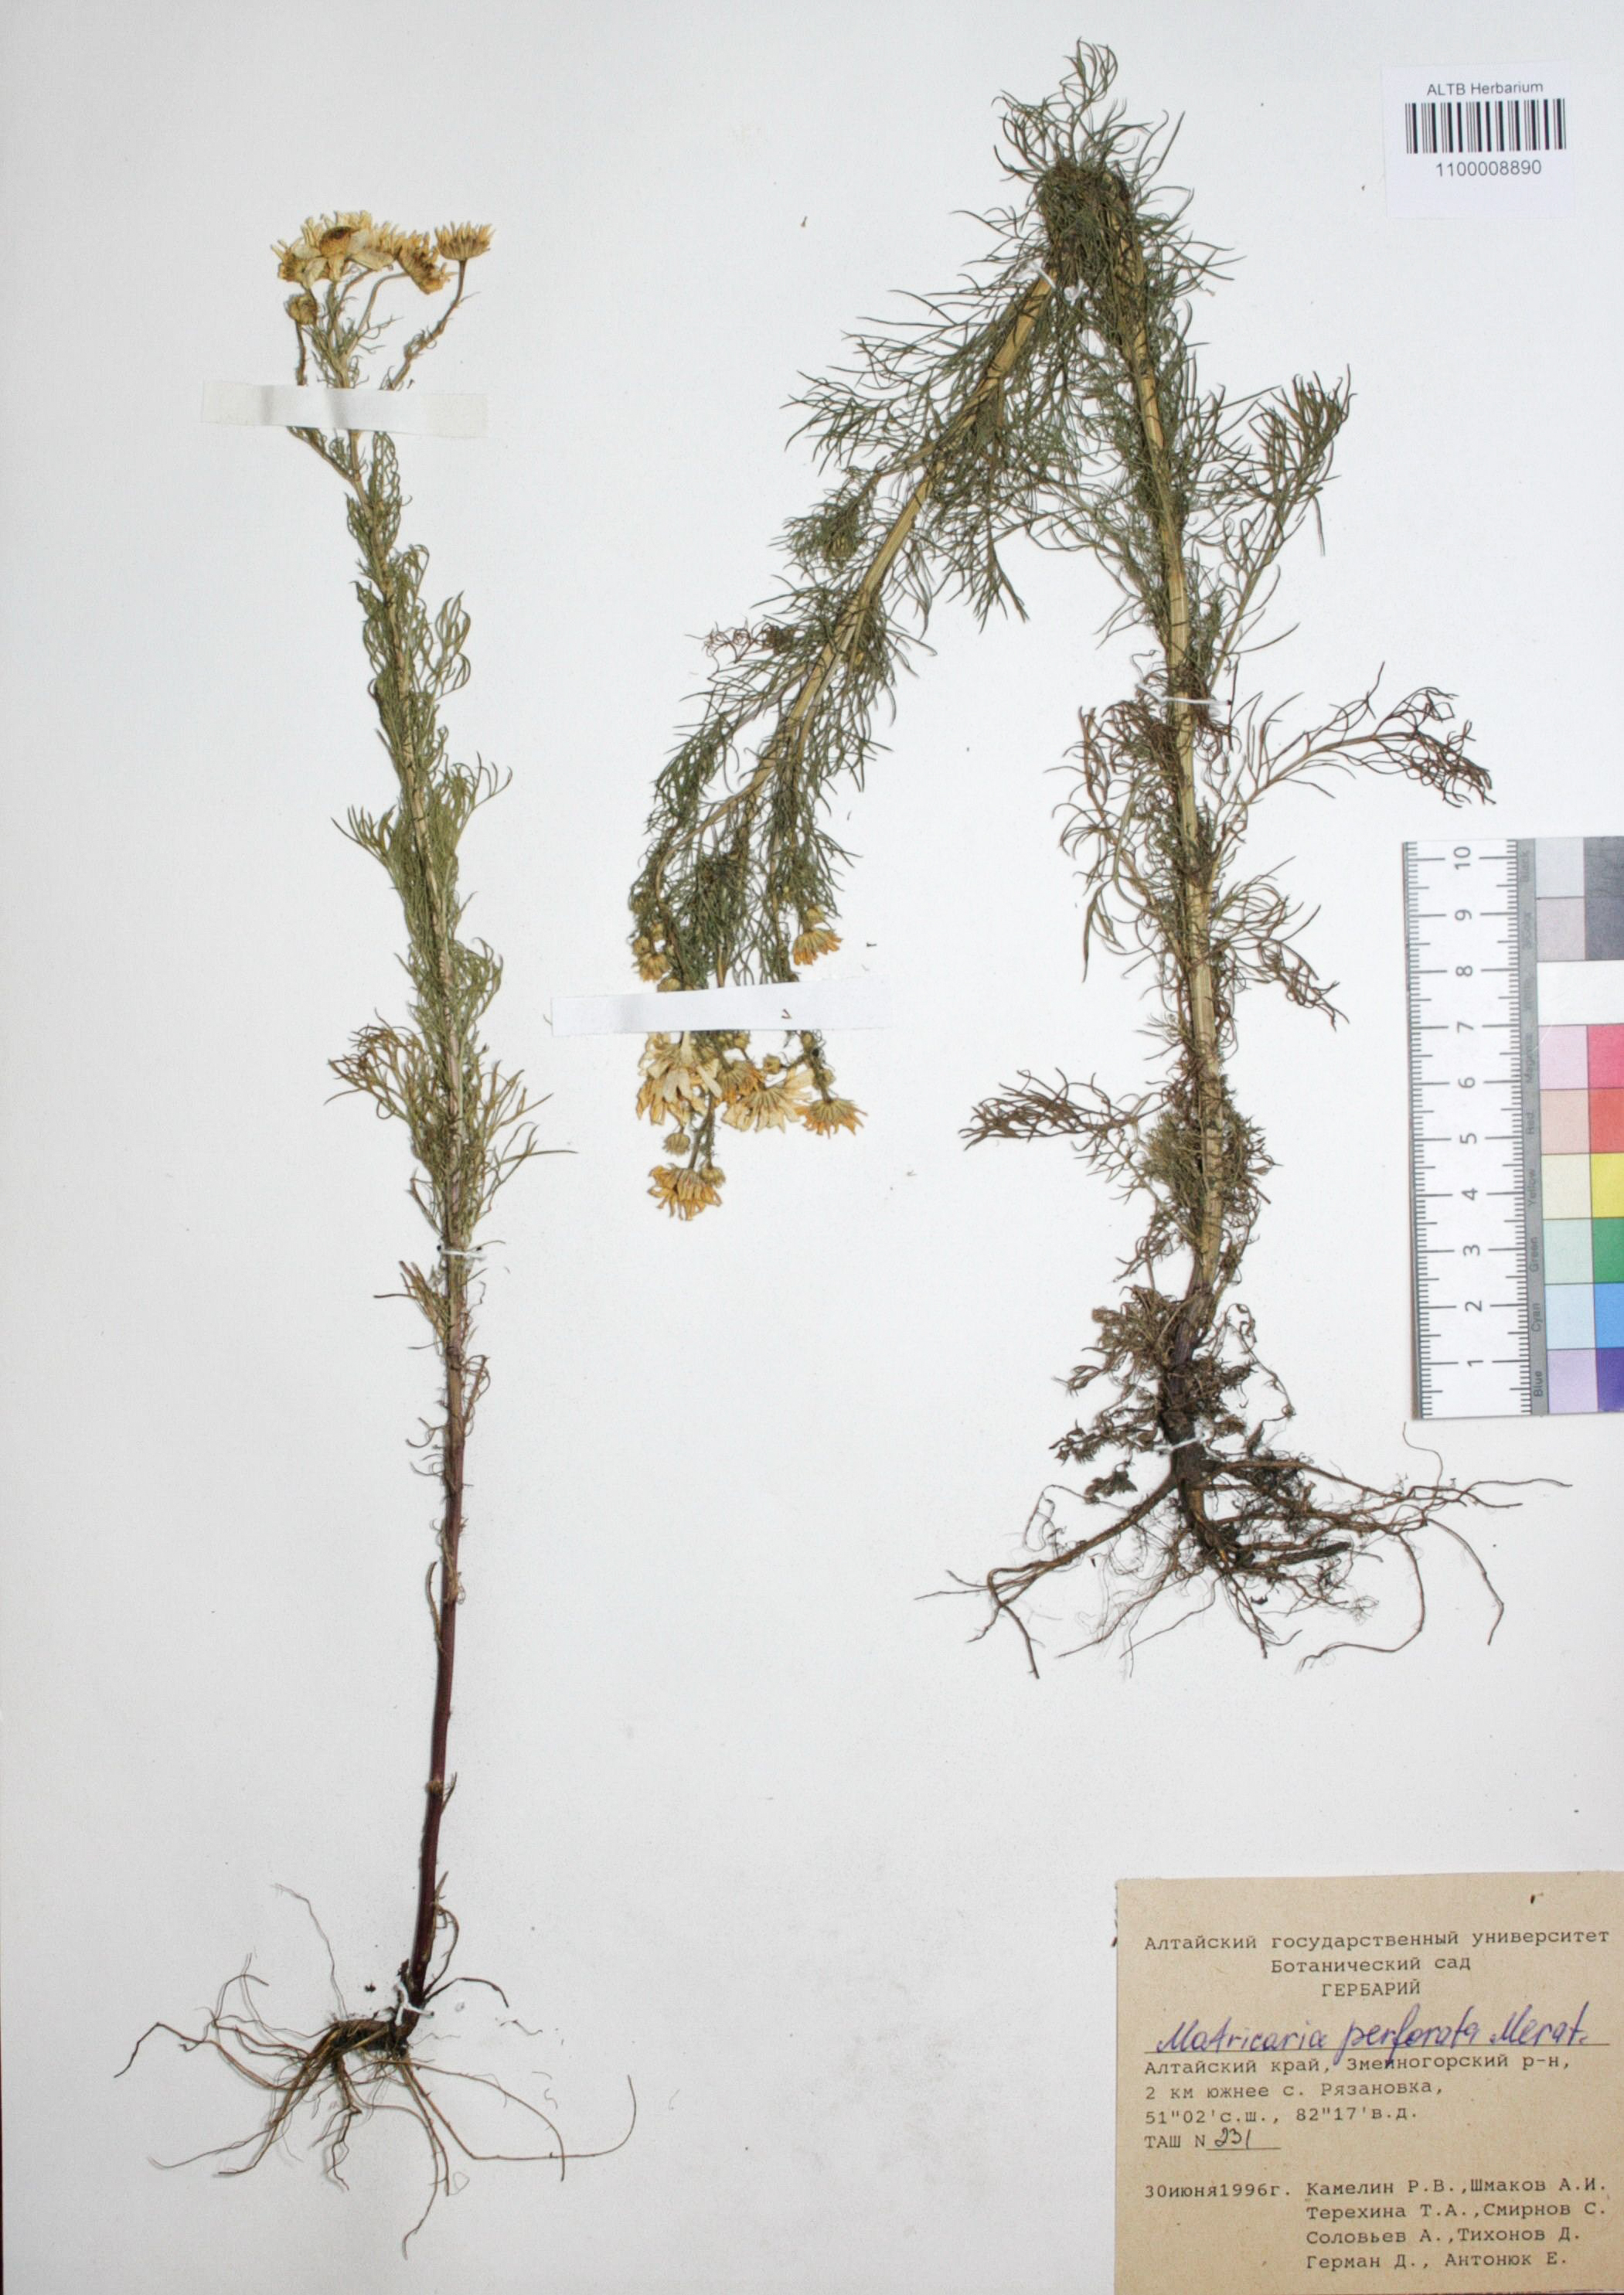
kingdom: Plantae
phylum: Tracheophyta
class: Magnoliopsida
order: Asterales
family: Asteraceae
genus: Tripleurospermum
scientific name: Tripleurospermum inodorum
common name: Scentless mayweed
